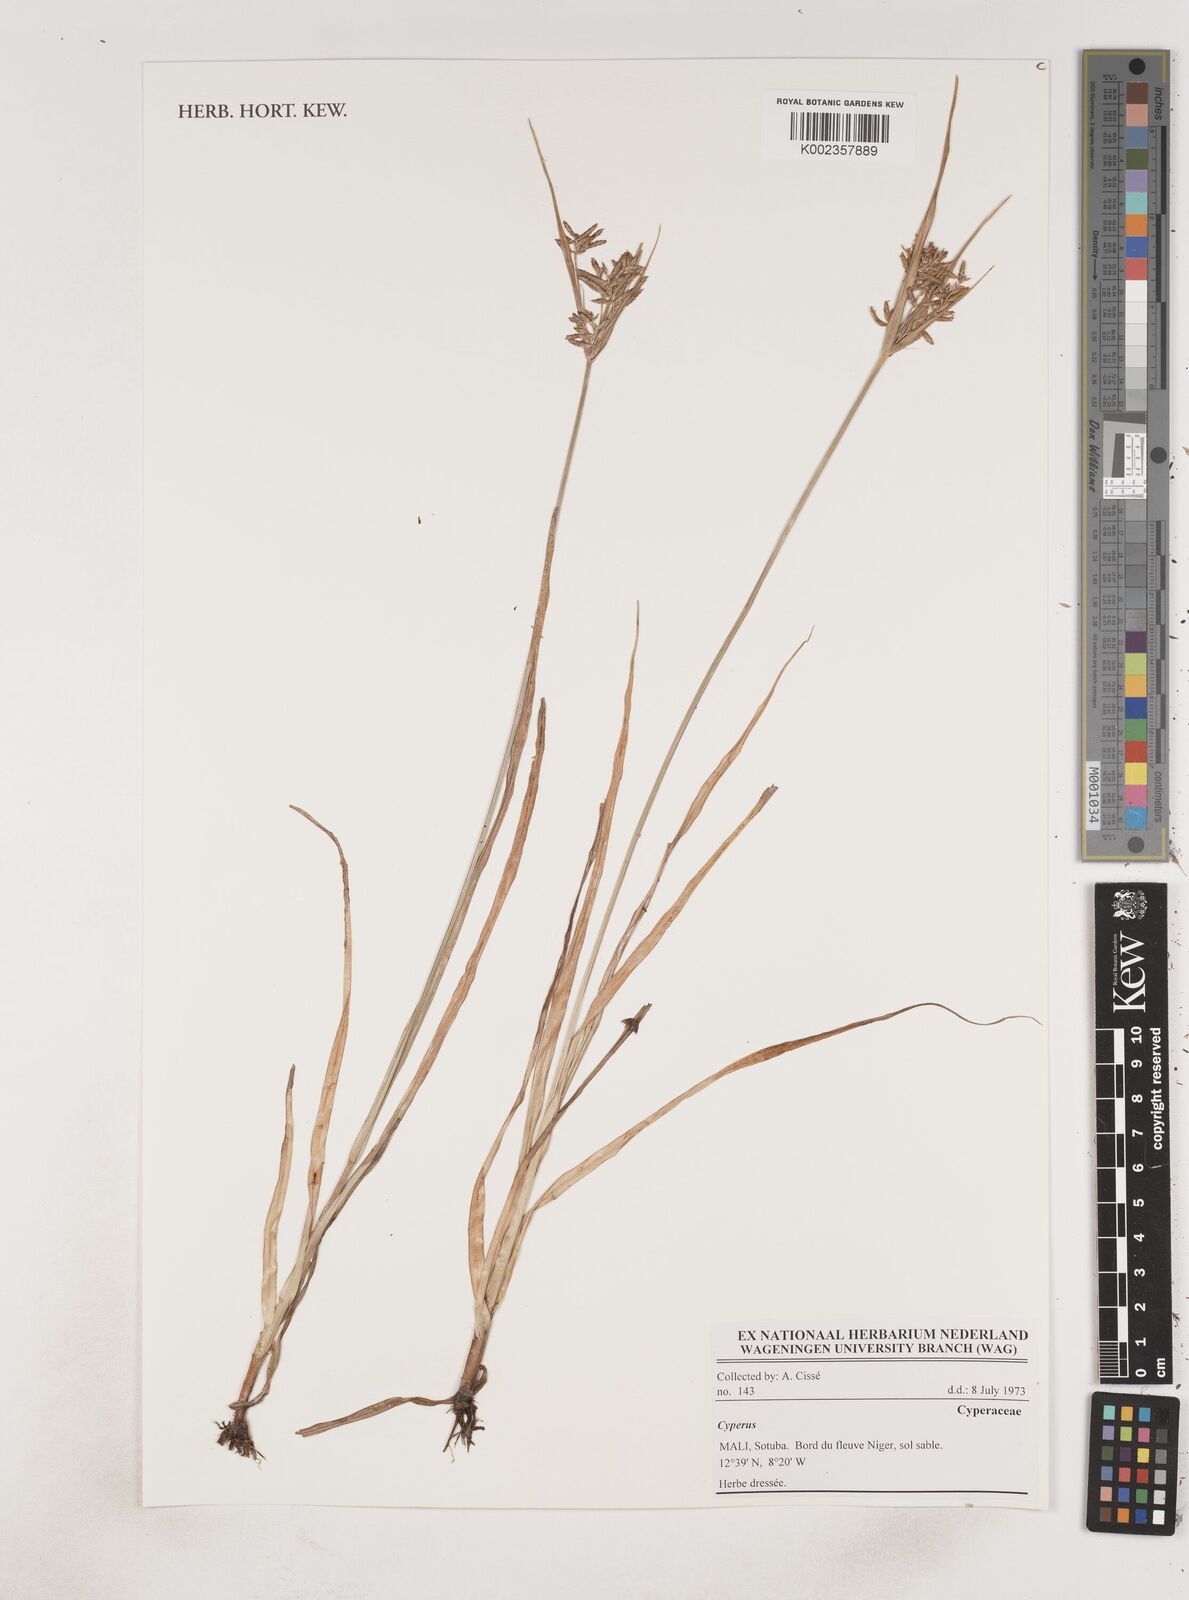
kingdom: Plantae
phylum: Tracheophyta
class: Liliopsida
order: Poales
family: Cyperaceae
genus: Cyperus
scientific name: Cyperus
